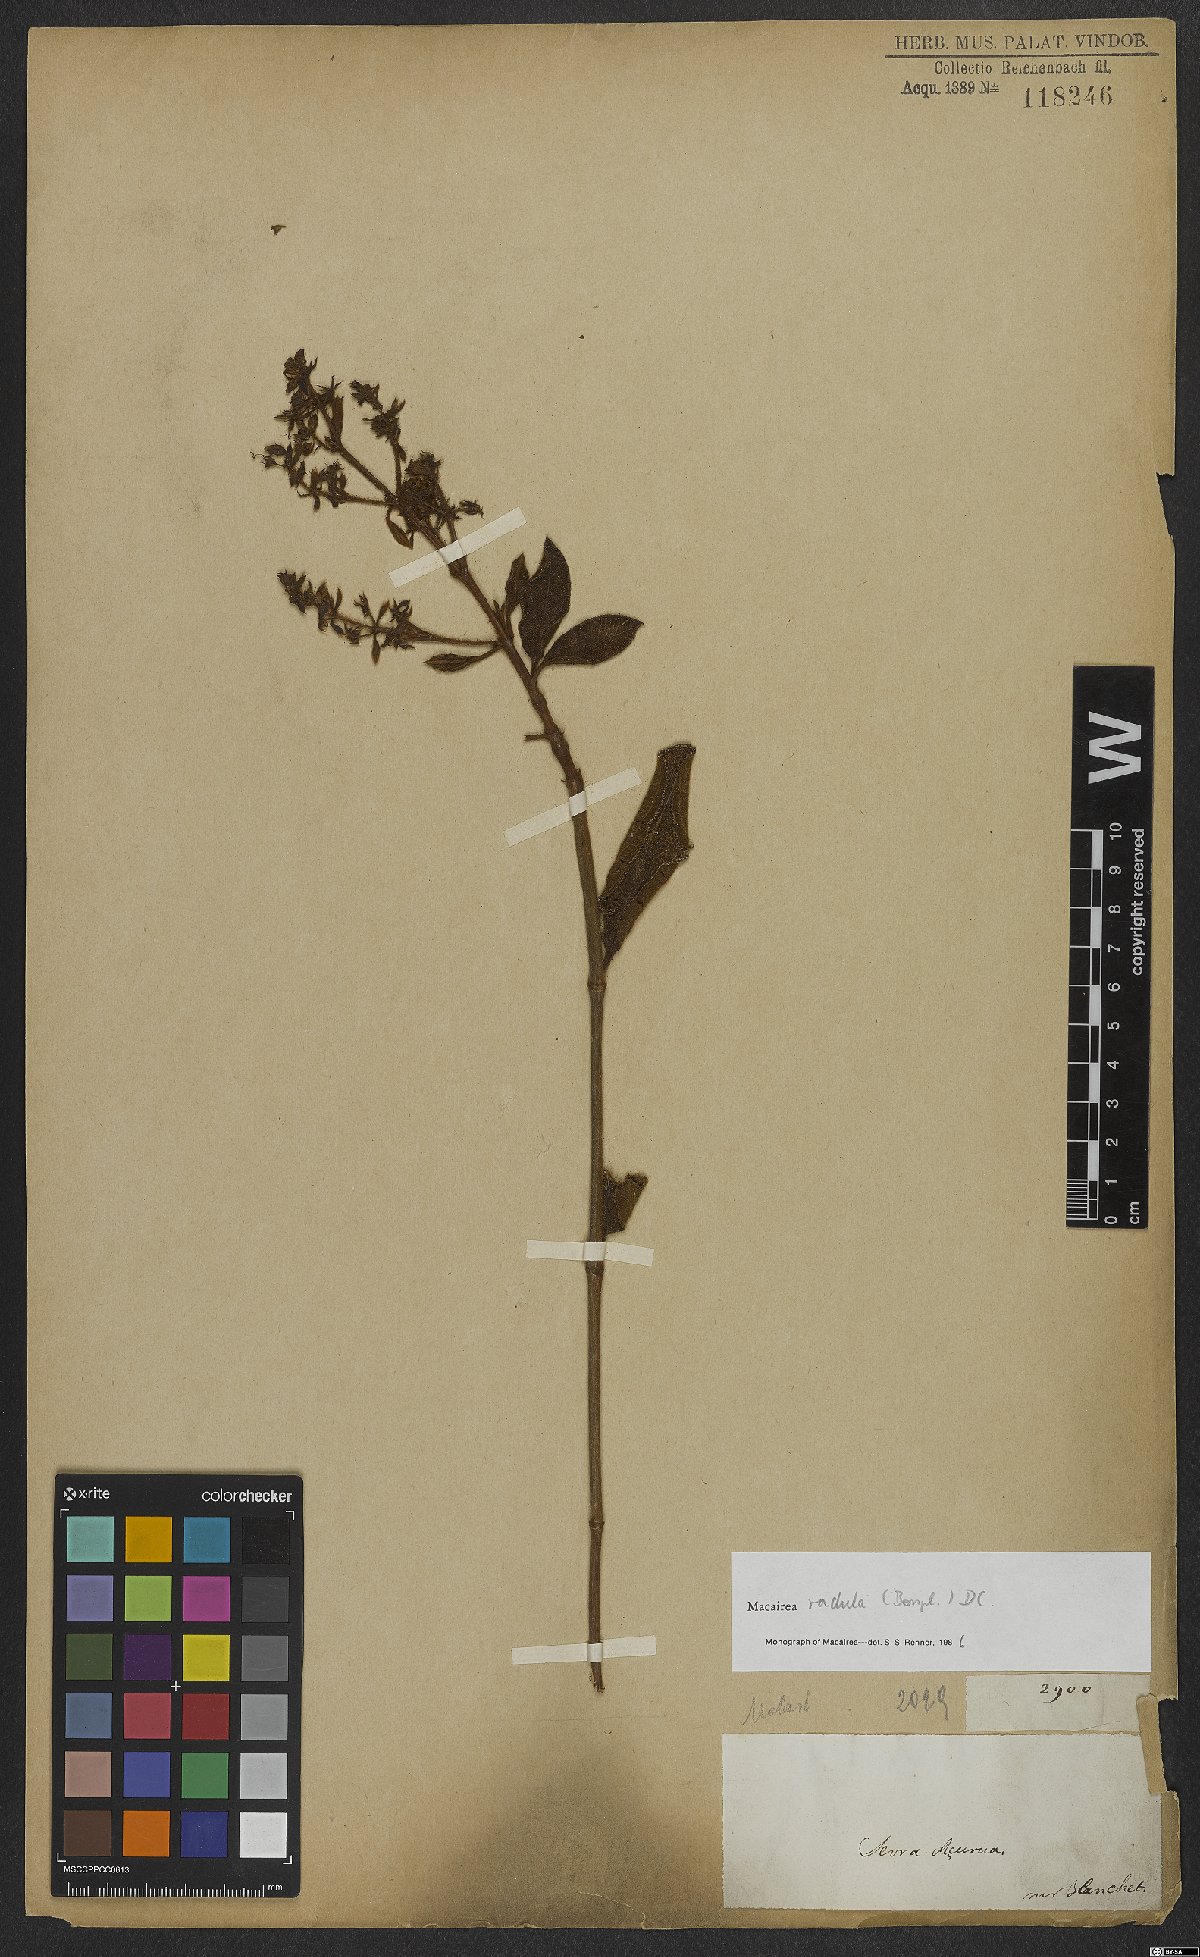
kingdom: Plantae
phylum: Tracheophyta
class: Magnoliopsida
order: Myrtales
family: Melastomataceae
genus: Macairea
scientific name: Macairea radula
